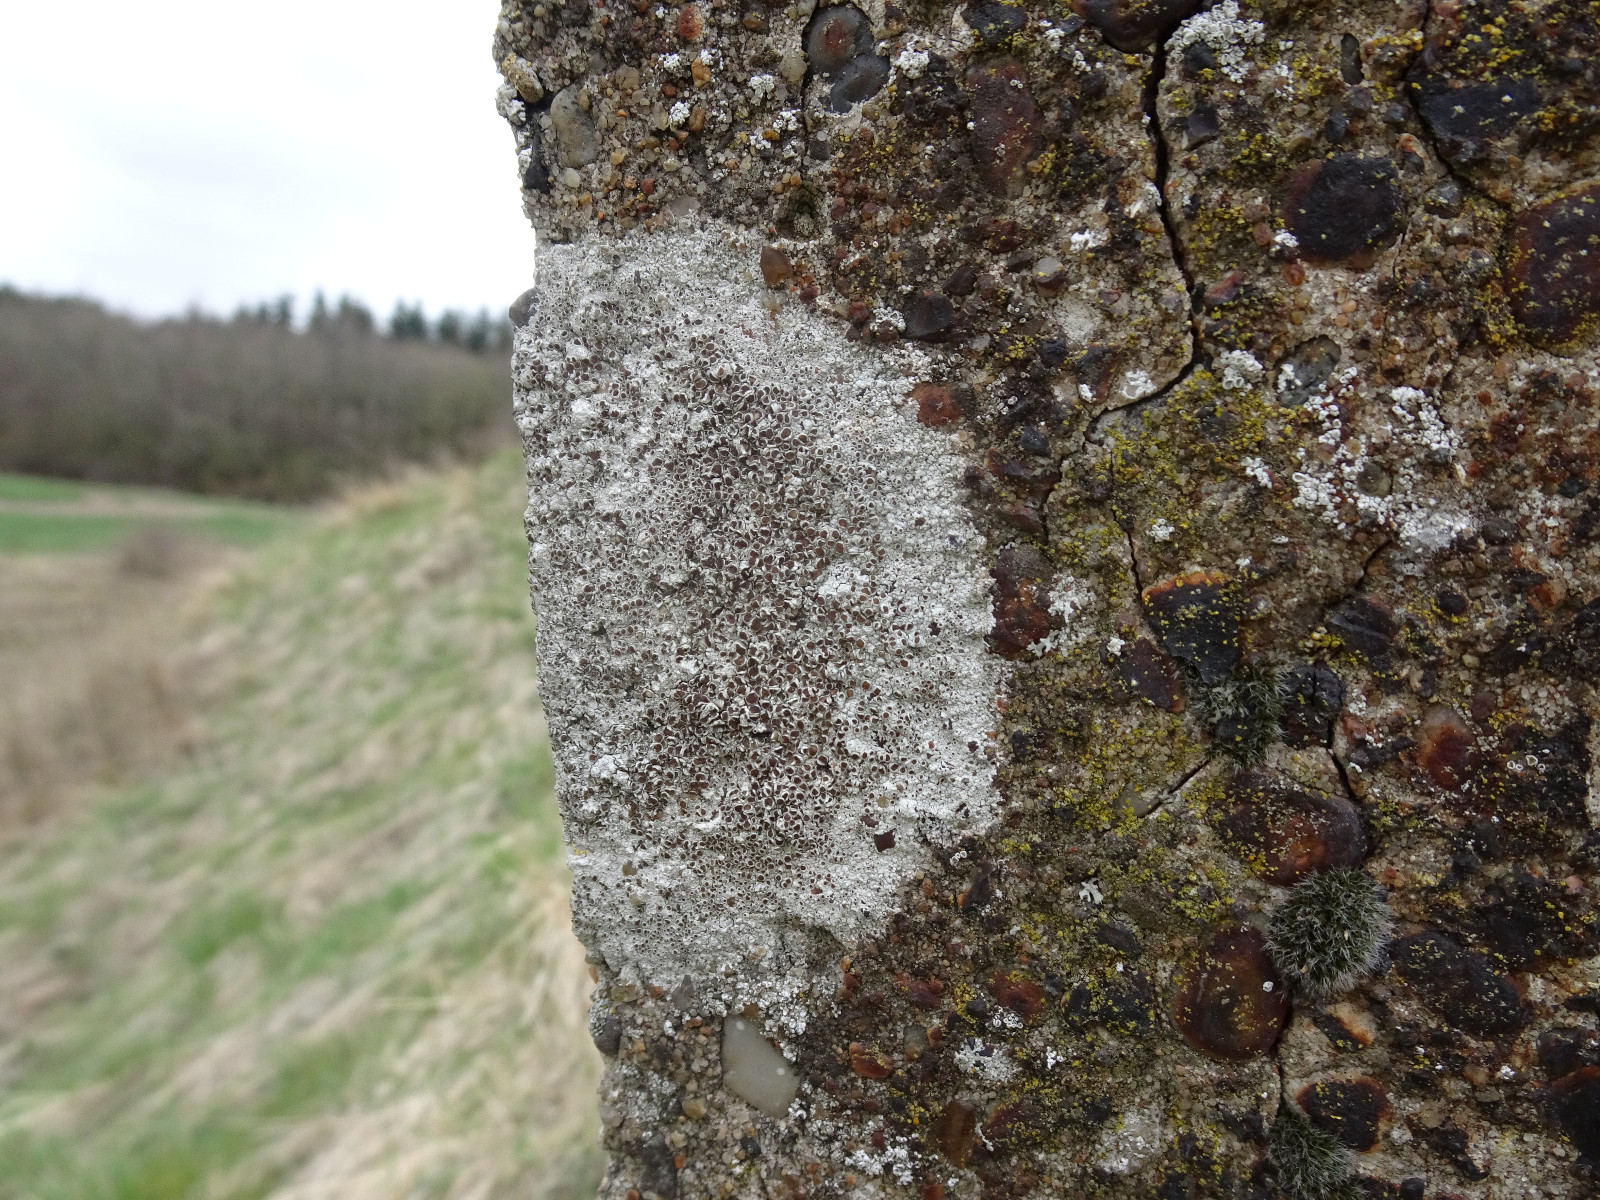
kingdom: Fungi
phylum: Ascomycota
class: Lecanoromycetes
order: Lecanorales
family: Lecanoraceae
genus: Lecanora
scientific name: Lecanora campestris
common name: mur-kantskivelav
